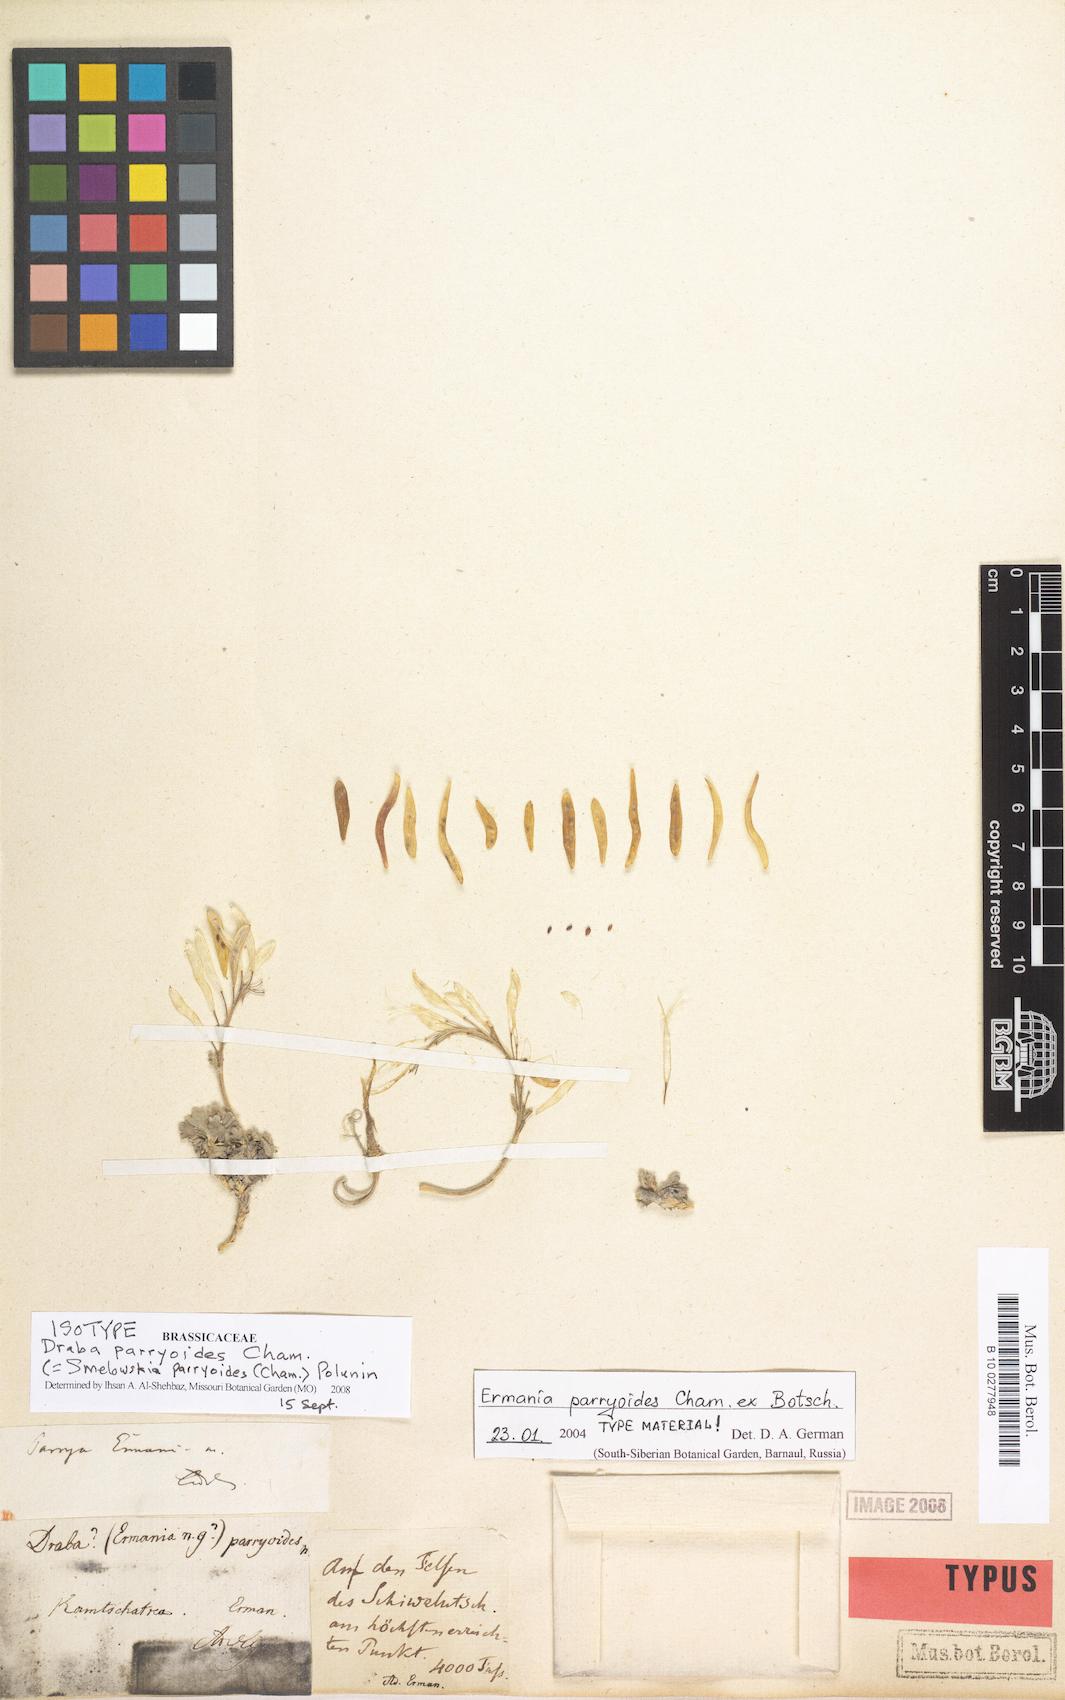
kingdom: Plantae
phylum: Tracheophyta
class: Magnoliopsida
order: Brassicales
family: Brassicaceae
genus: Smelowskia
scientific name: Smelowskia parryoides
